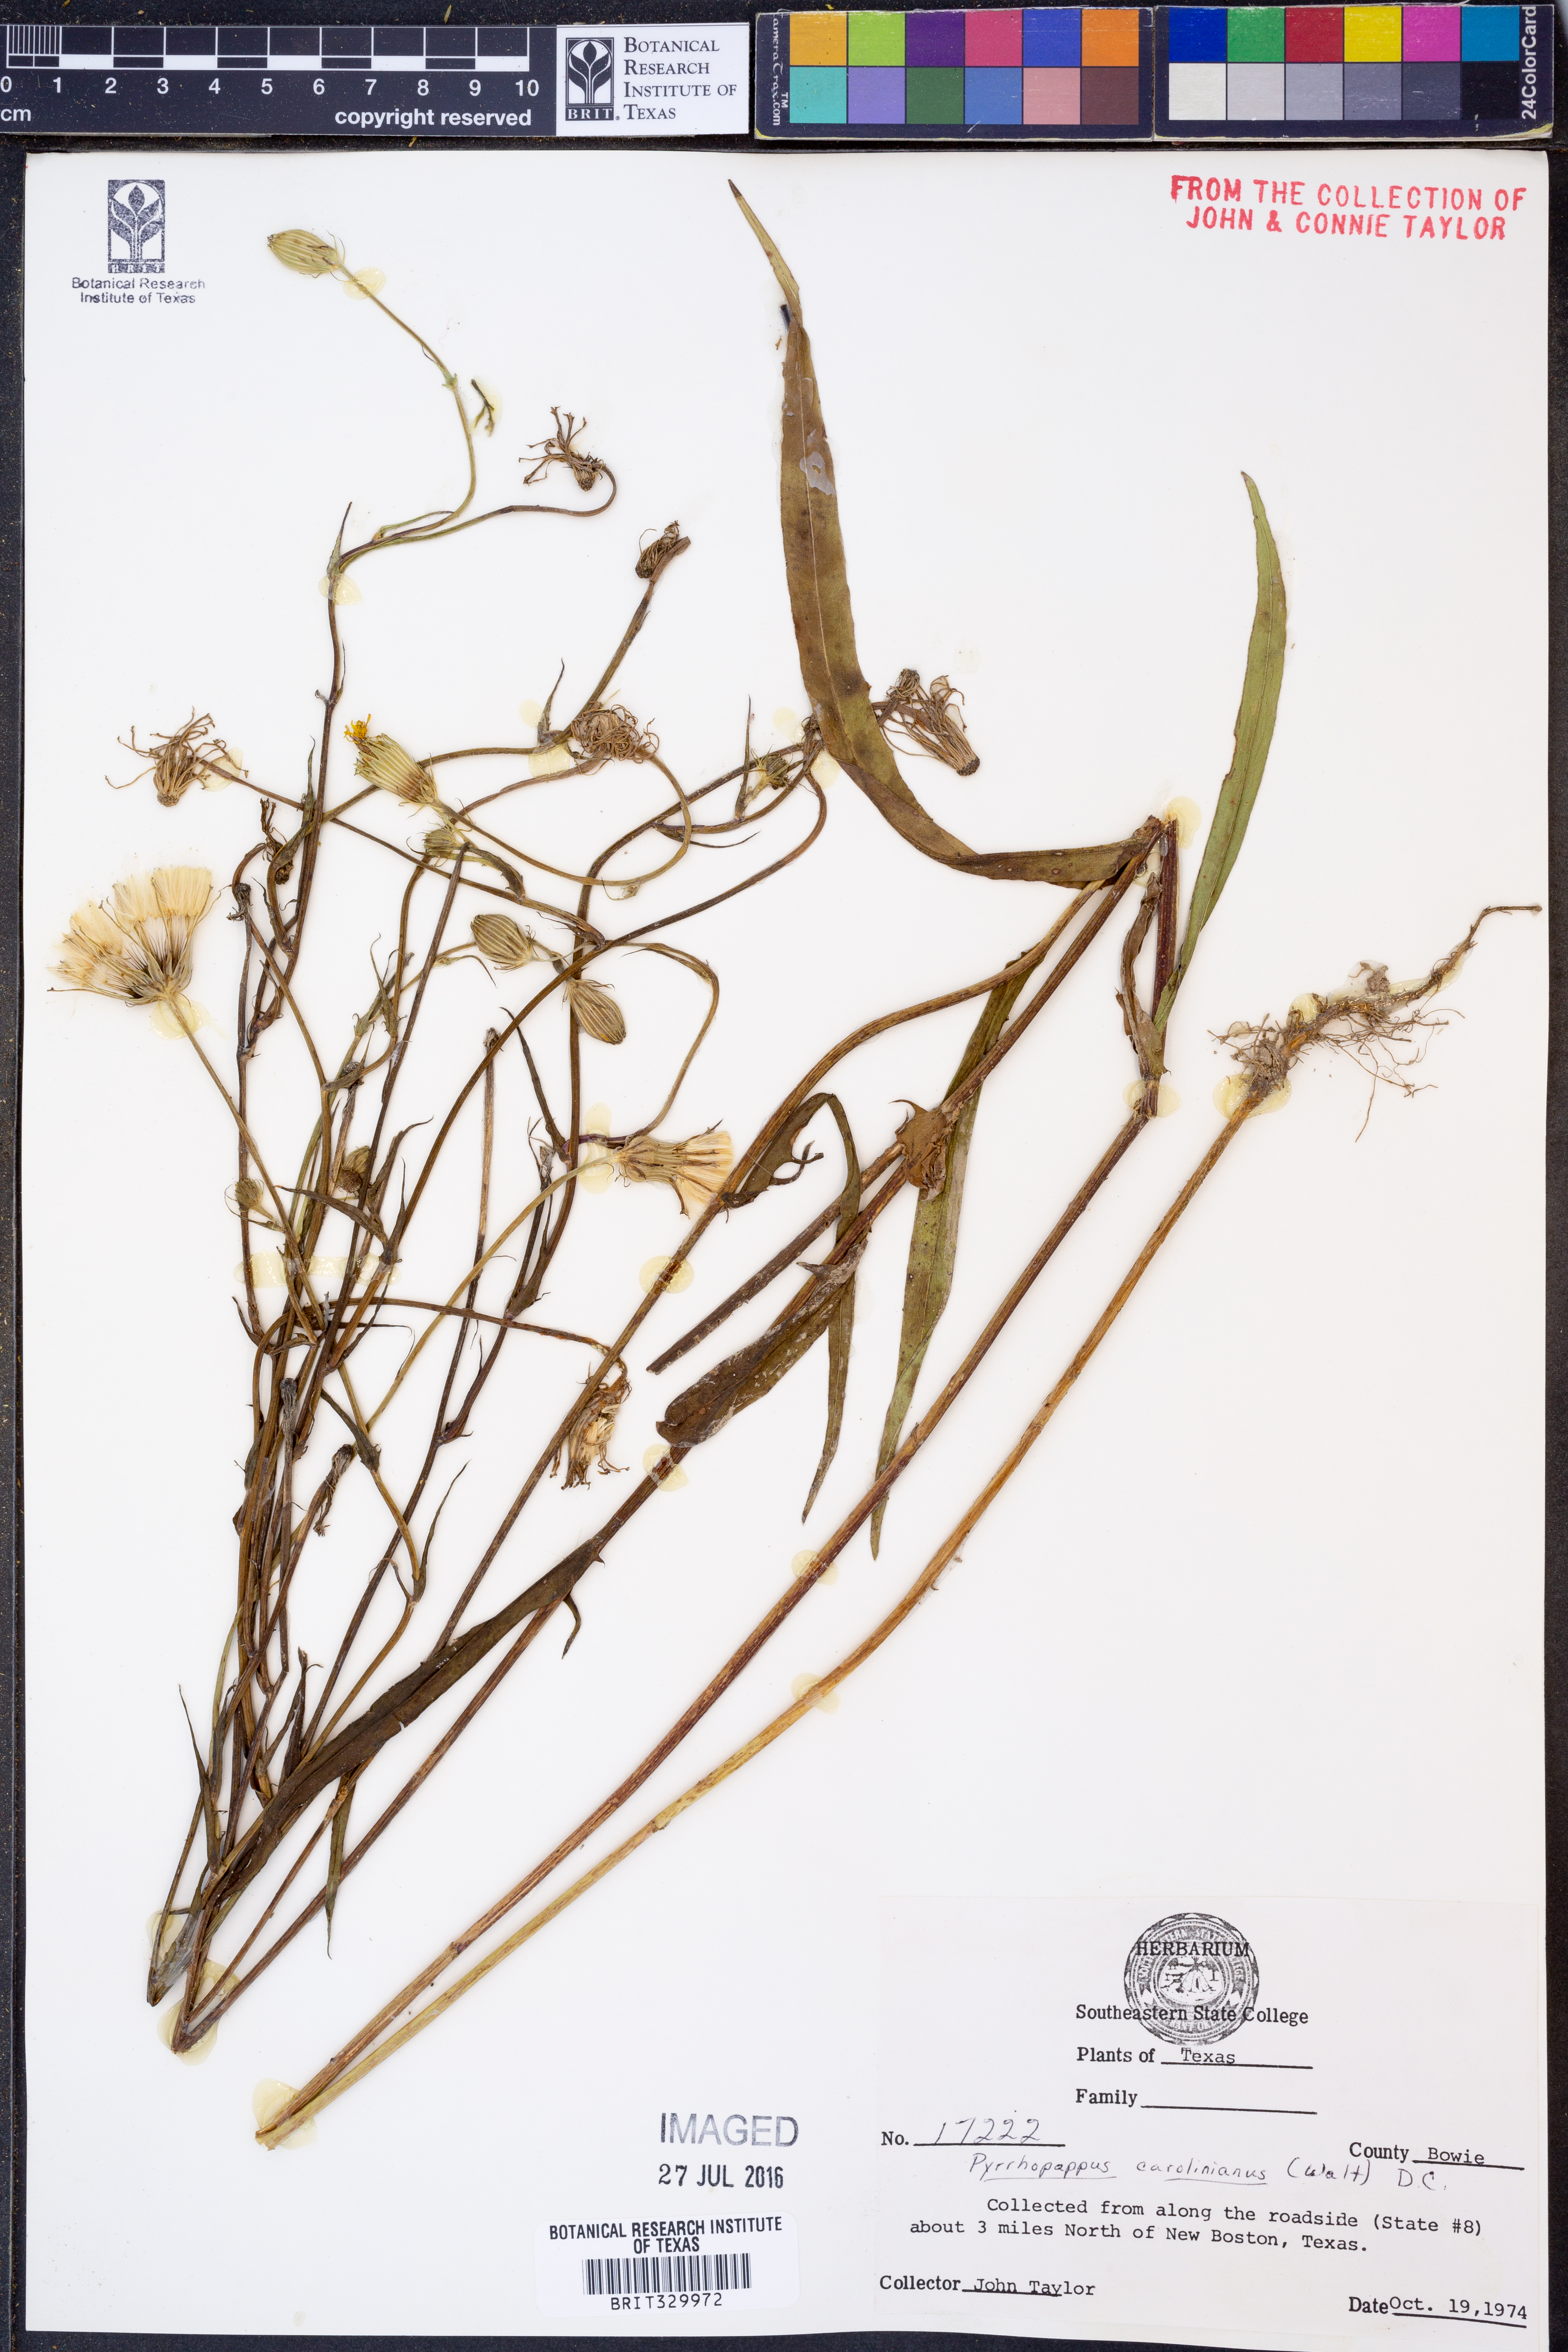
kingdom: Plantae
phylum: Tracheophyta
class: Magnoliopsida
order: Asterales
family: Asteraceae
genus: Pyrrhopappus
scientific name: Pyrrhopappus carolinianus
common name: Carolina desert-chicory
